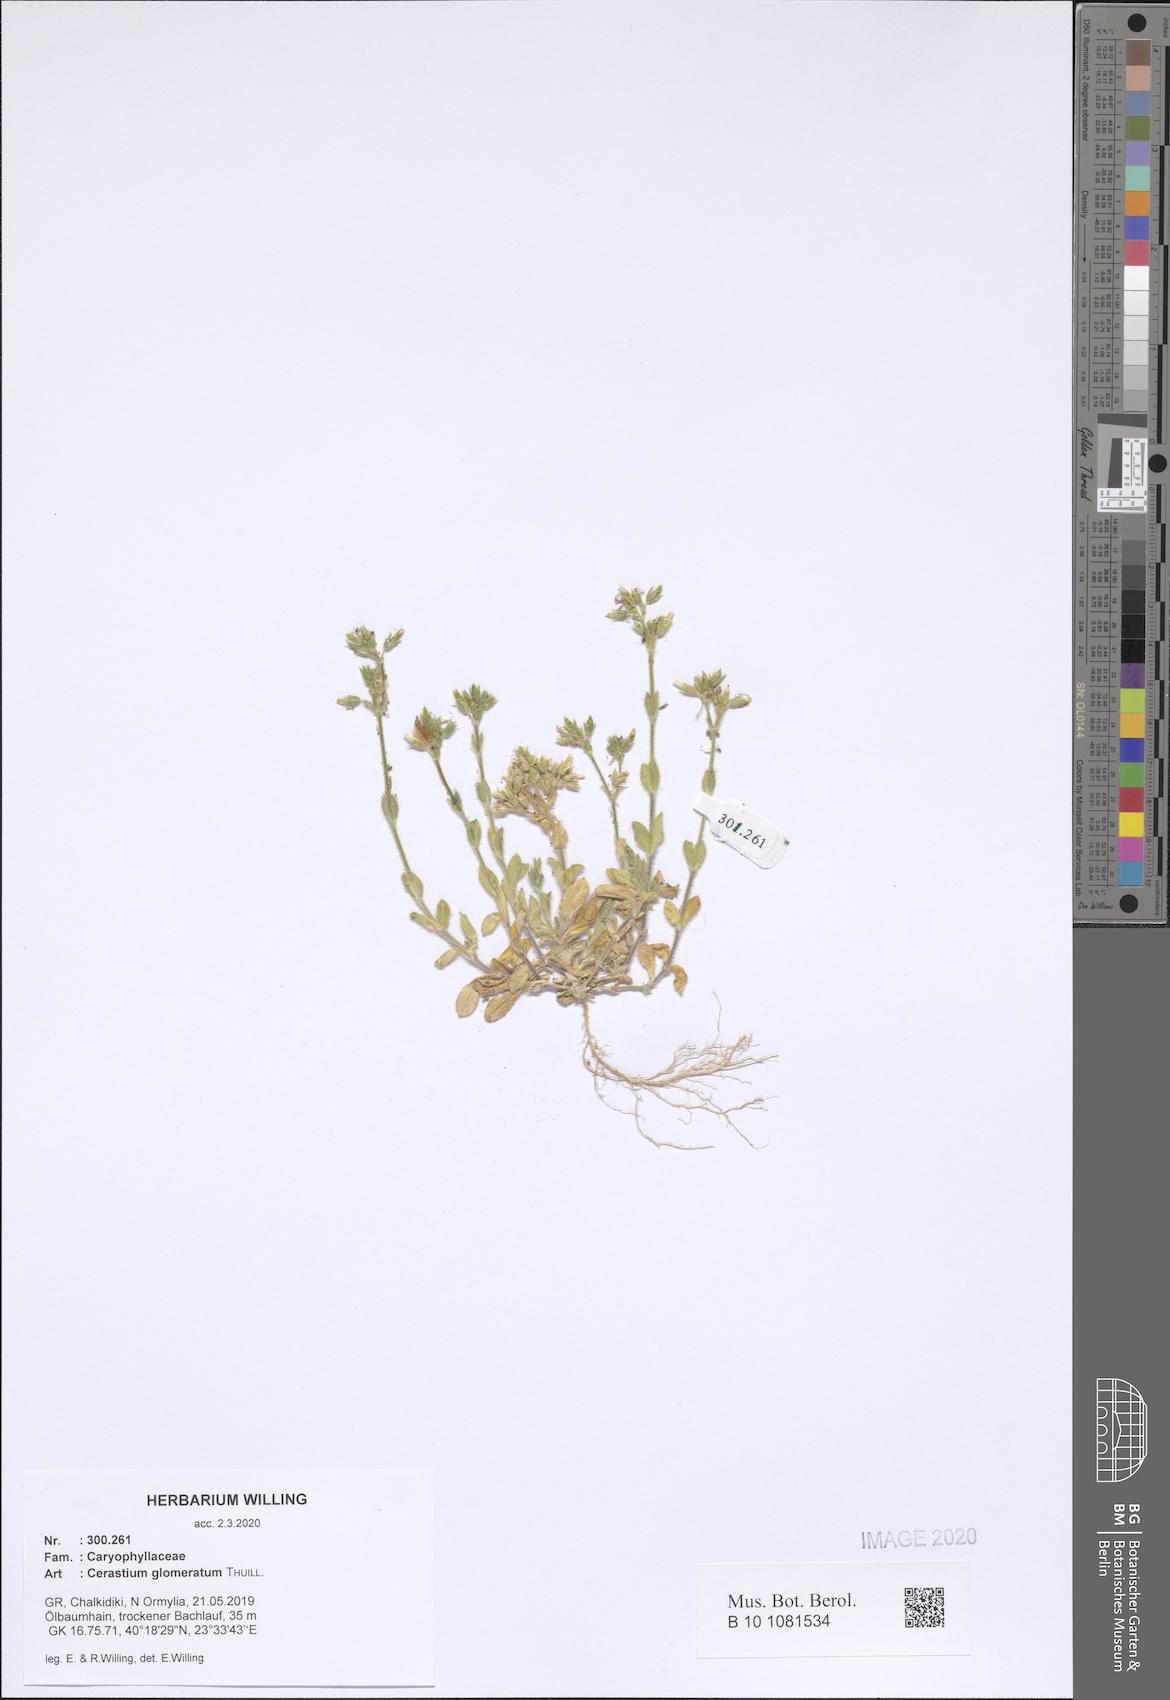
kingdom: Plantae
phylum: Tracheophyta
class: Magnoliopsida
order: Caryophyllales
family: Caryophyllaceae
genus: Cerastium
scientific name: Cerastium glomeratum
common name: Sticky chickweed
